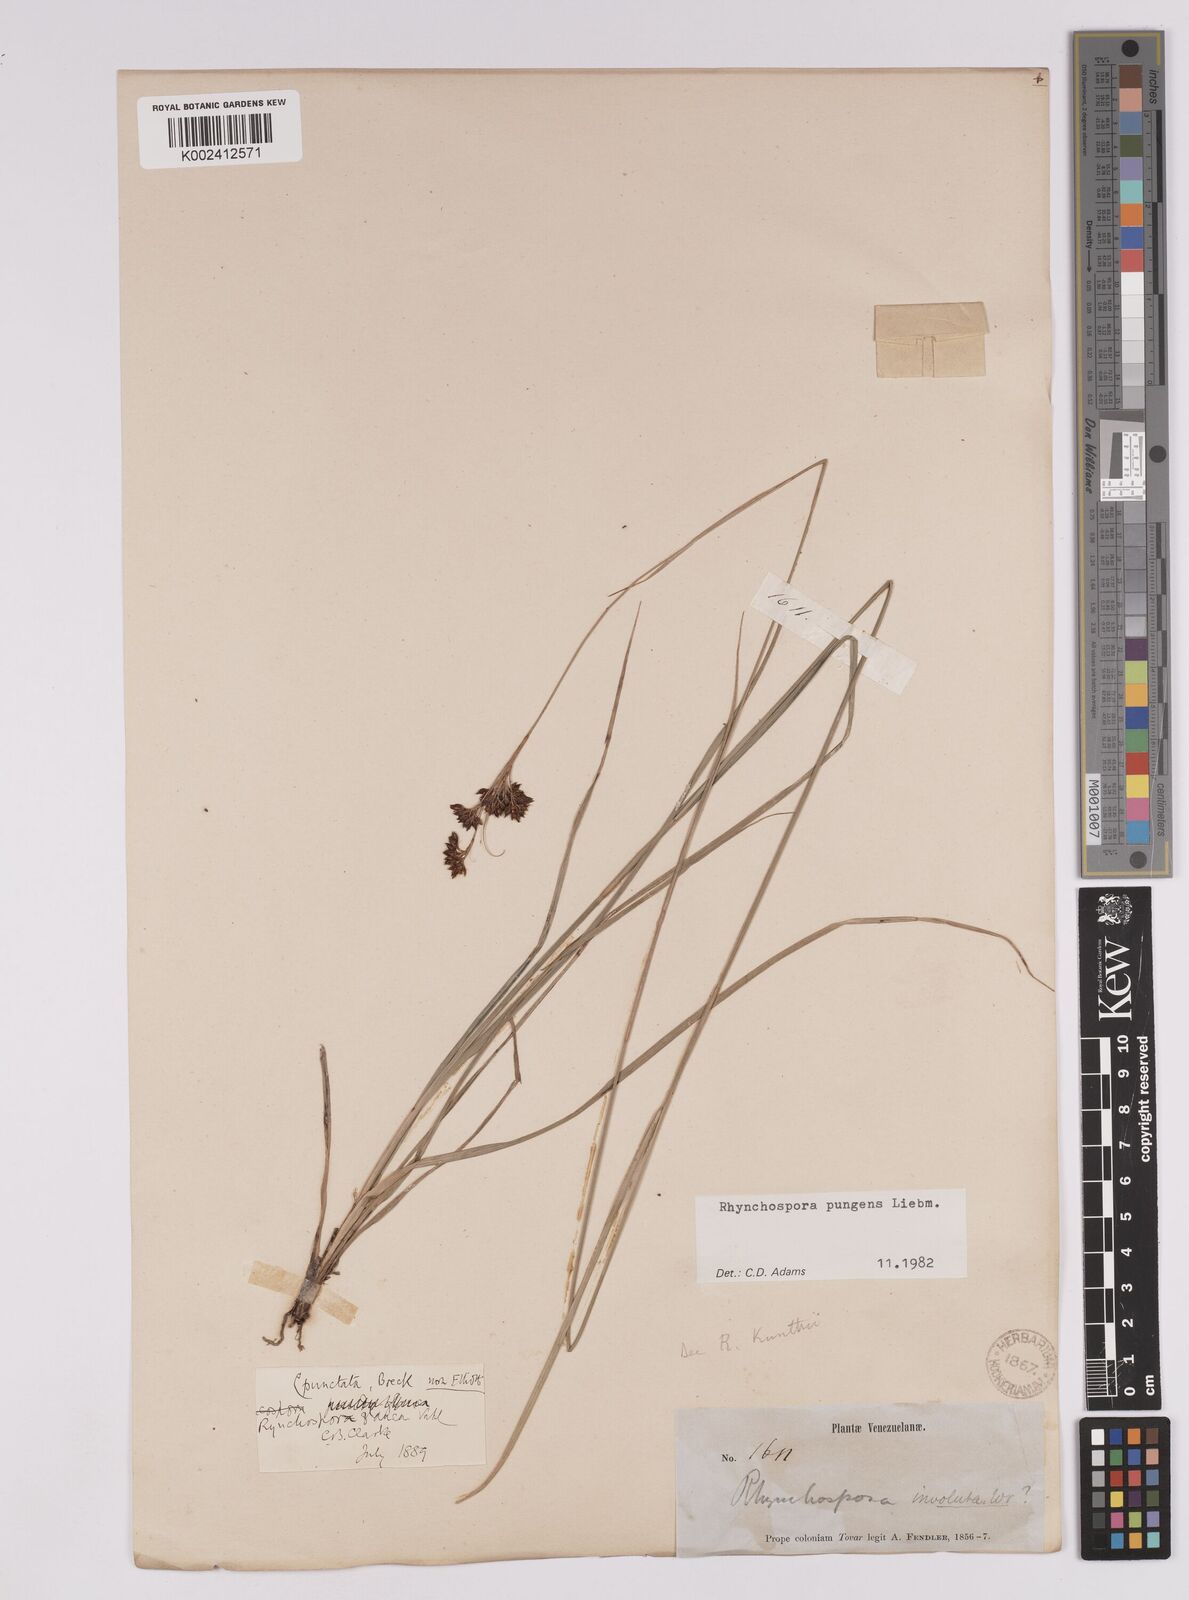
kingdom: Plantae
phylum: Tracheophyta
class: Liliopsida
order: Poales
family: Cyperaceae
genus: Rhynchospora
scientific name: Rhynchospora rugosa
